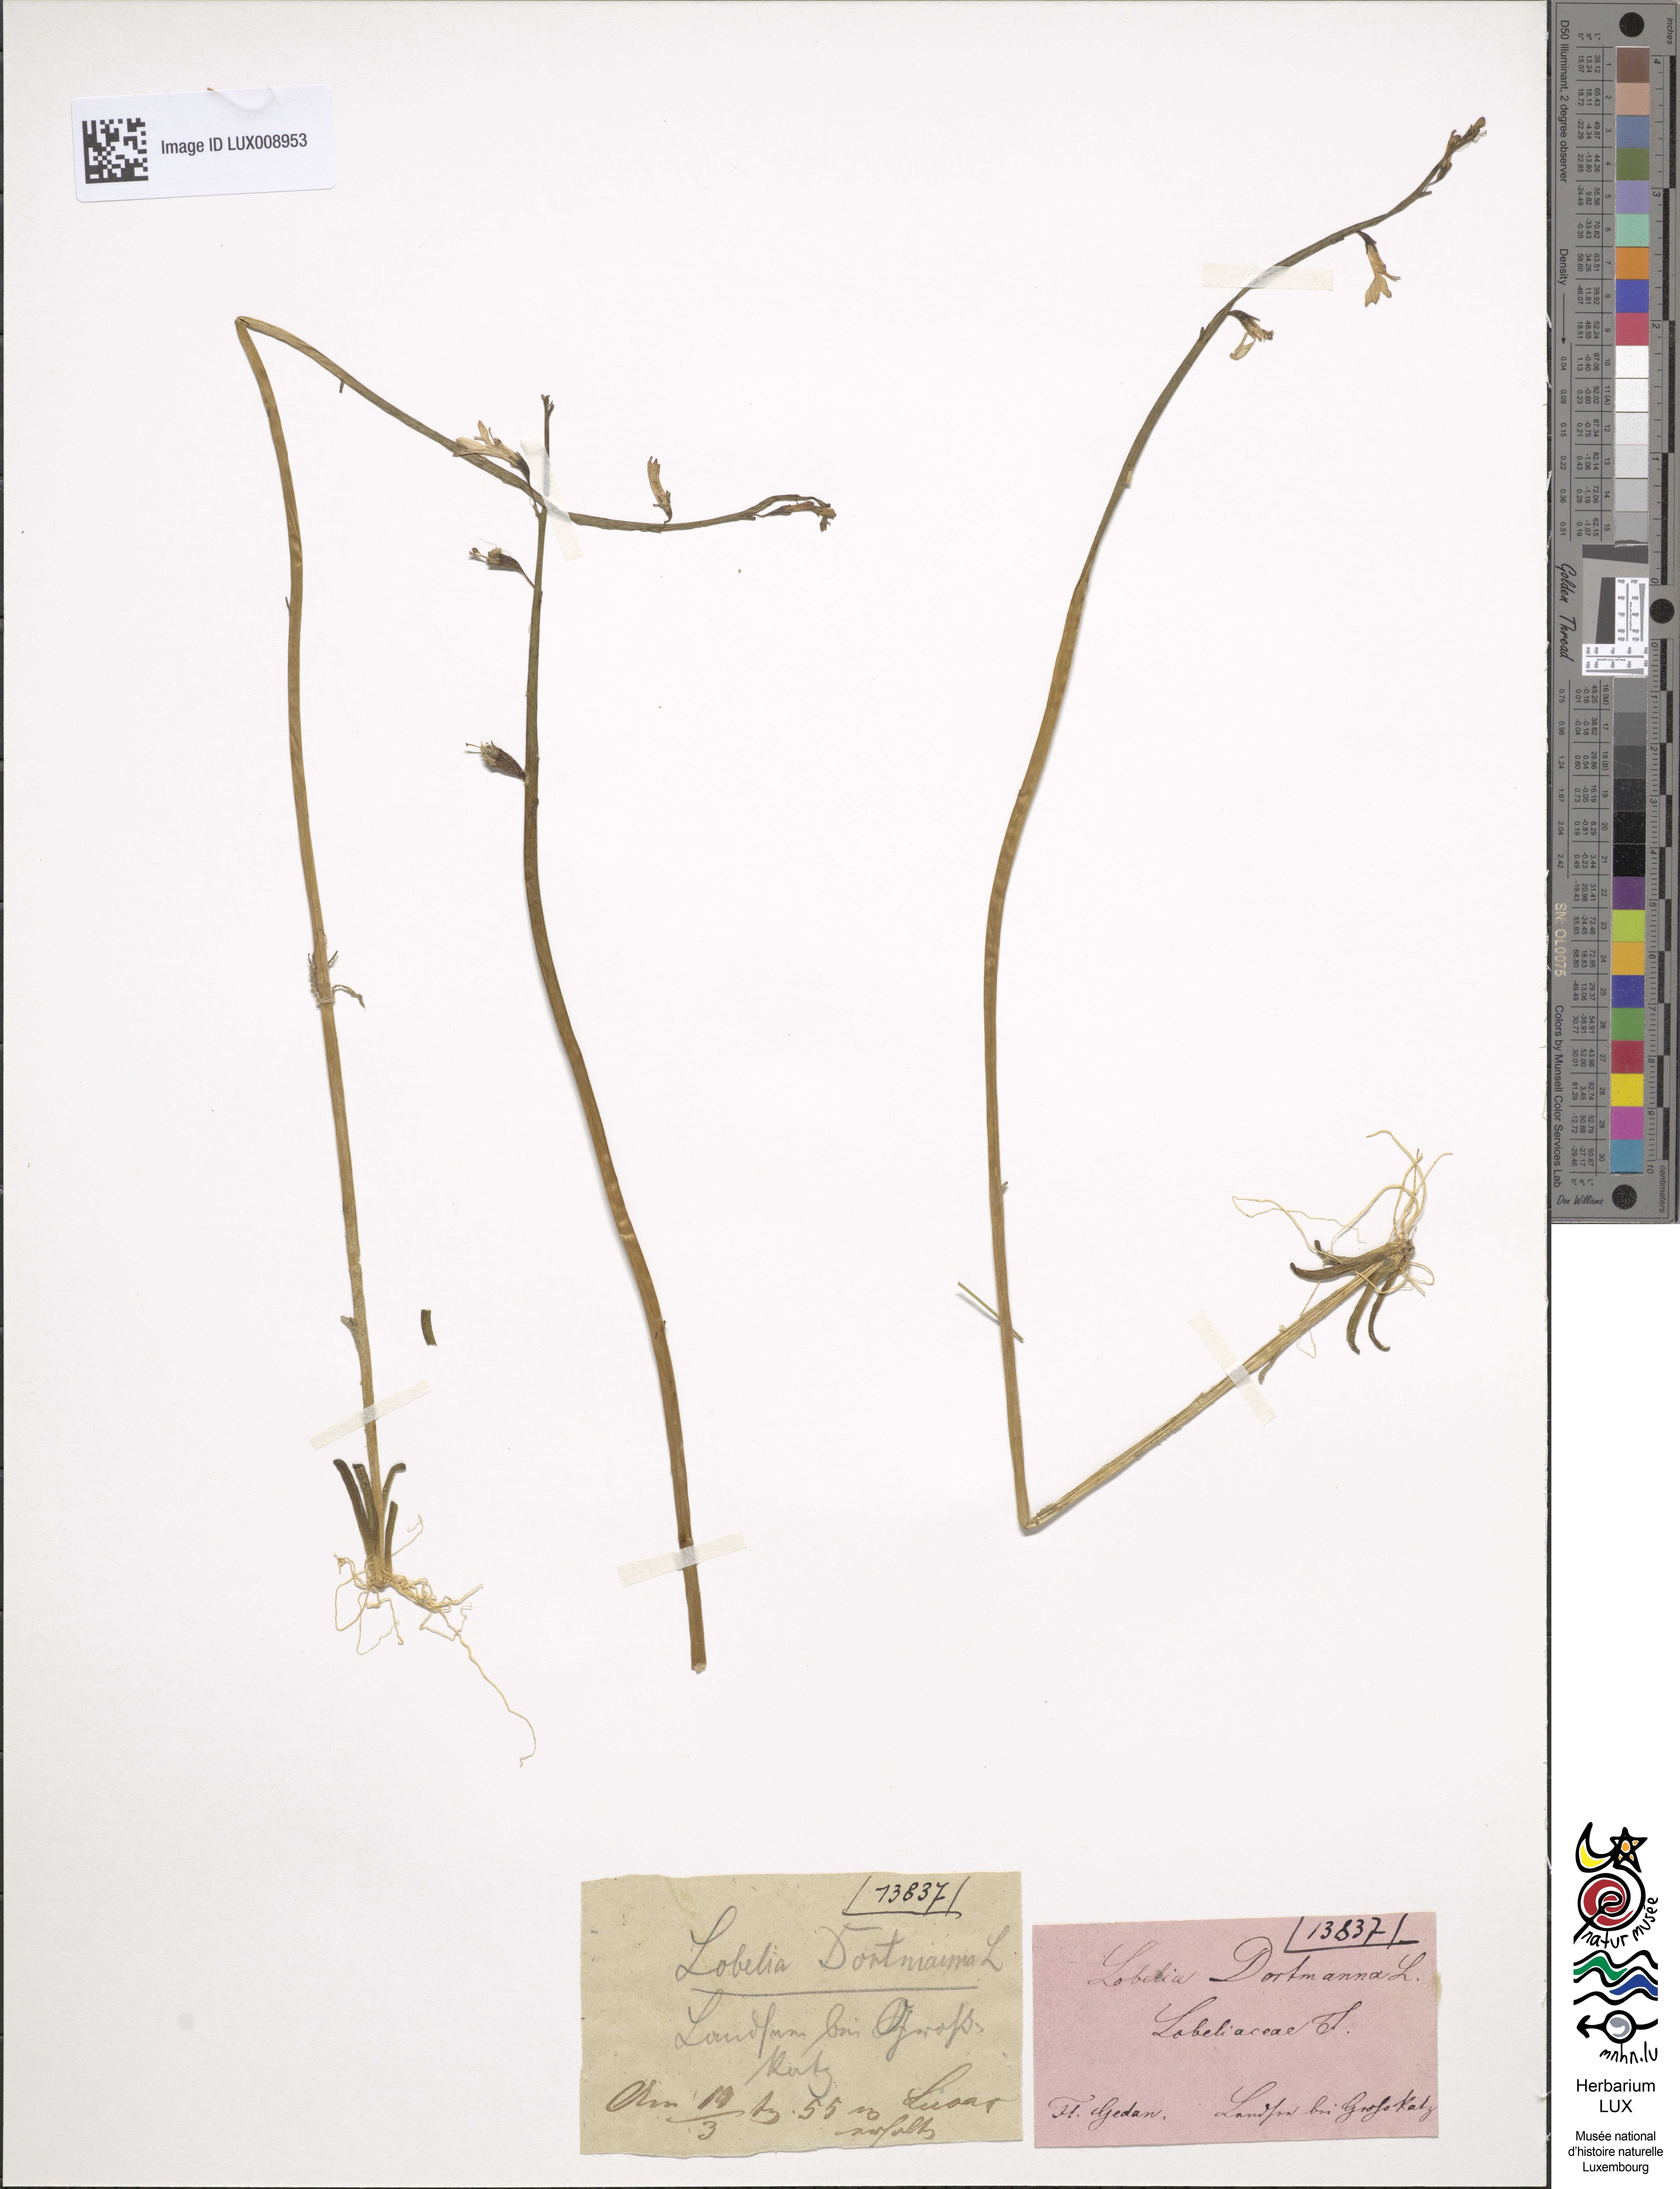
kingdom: Plantae
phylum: Tracheophyta
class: Magnoliopsida
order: Asterales
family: Campanulaceae
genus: Lobelia
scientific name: Lobelia dortmanna
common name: Water lobelia
